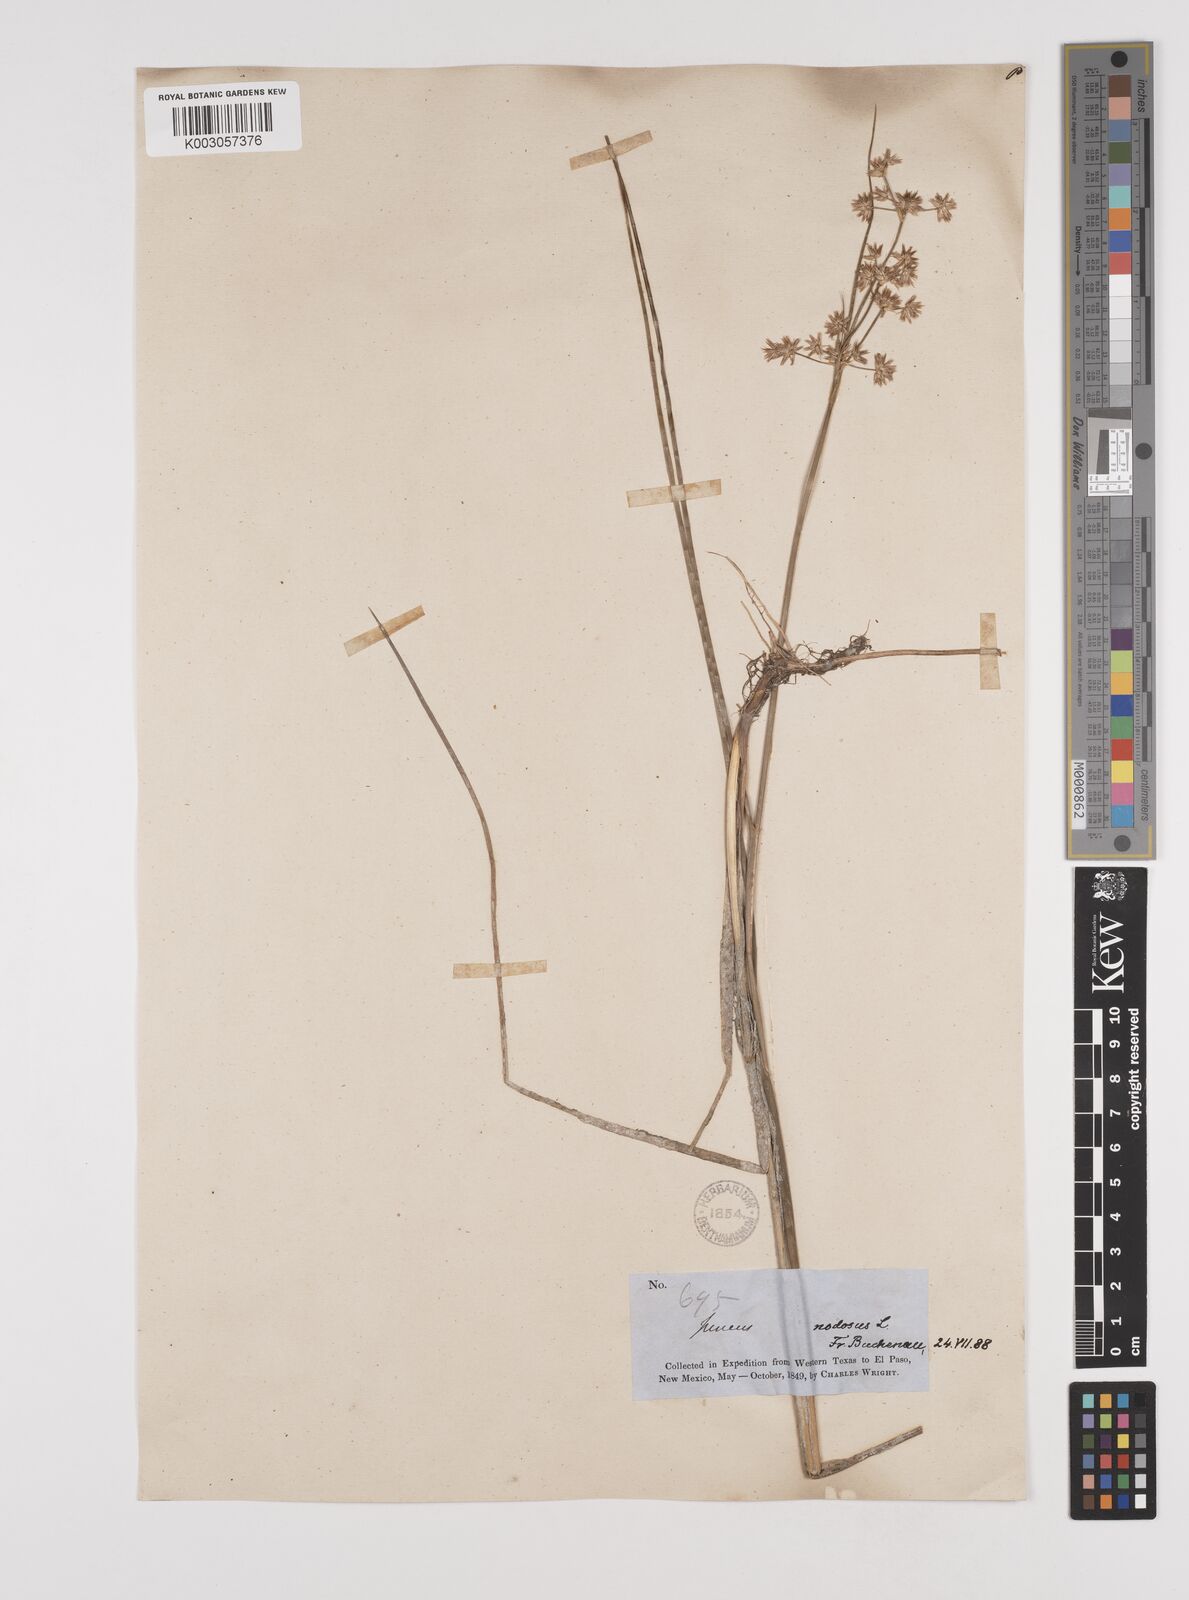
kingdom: Plantae
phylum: Tracheophyta
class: Liliopsida
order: Poales
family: Juncaceae
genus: Juncus
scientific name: Juncus nodosus
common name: Knotted rush
